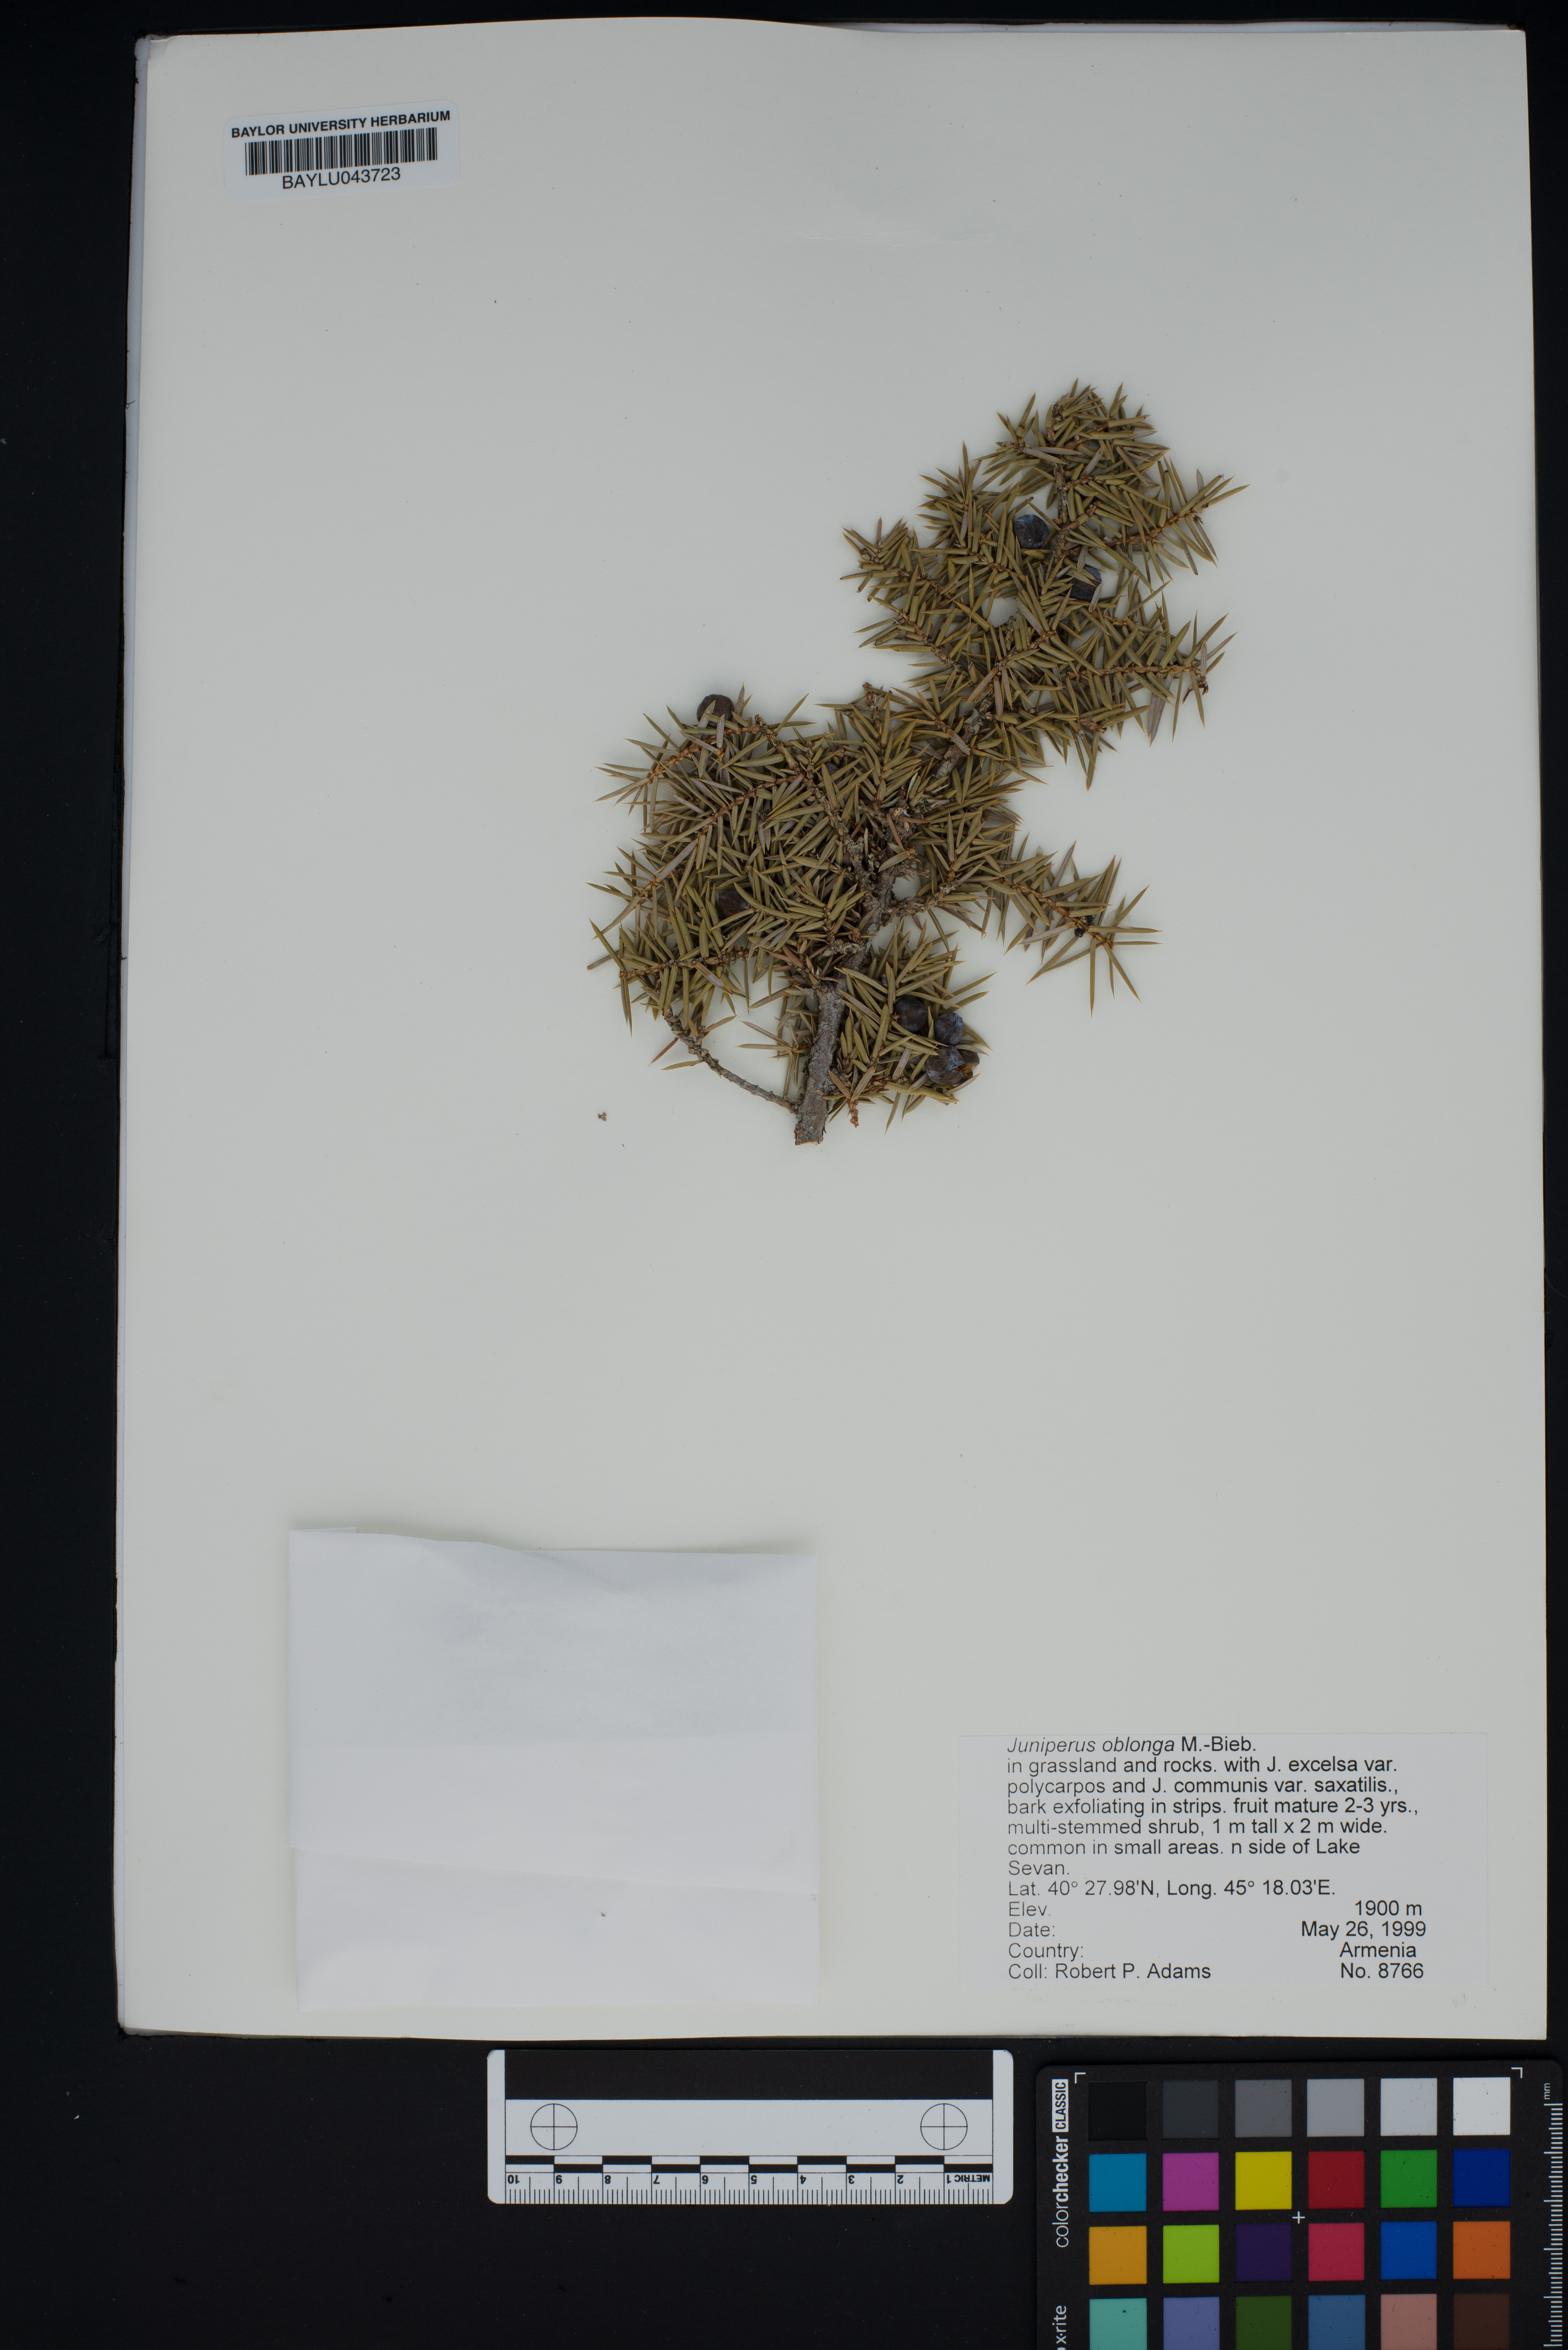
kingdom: Plantae
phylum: Tracheophyta
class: Pinopsida
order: Pinales
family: Cupressaceae
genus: Juniperus
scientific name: Juniperus communis
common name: Common juniper
